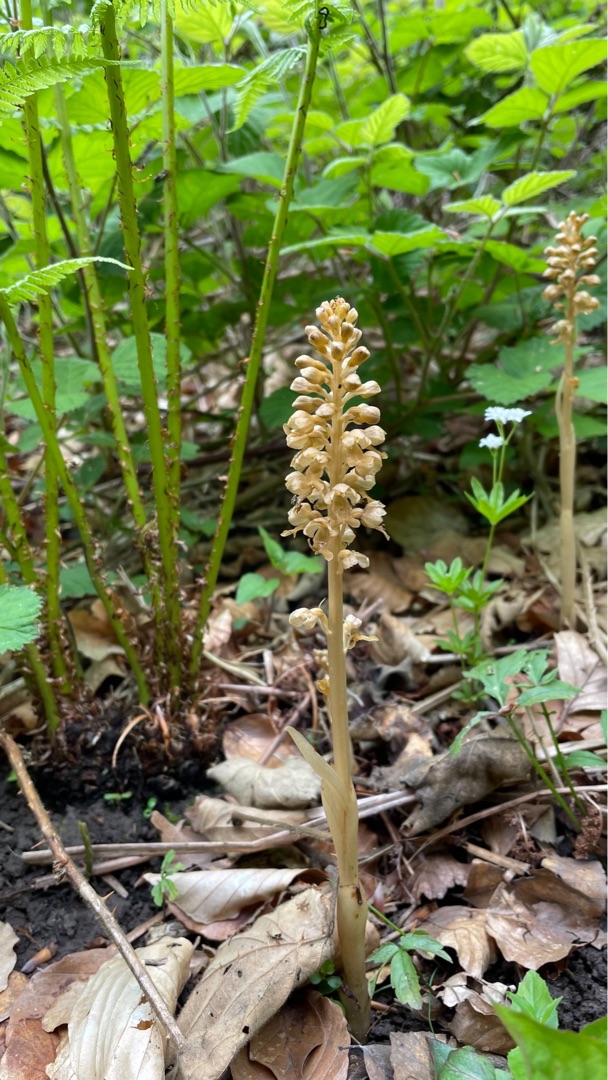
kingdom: Plantae
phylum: Tracheophyta
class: Liliopsida
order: Asparagales
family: Orchidaceae
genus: Neottia
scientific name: Neottia nidus-avis
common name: Rederod
